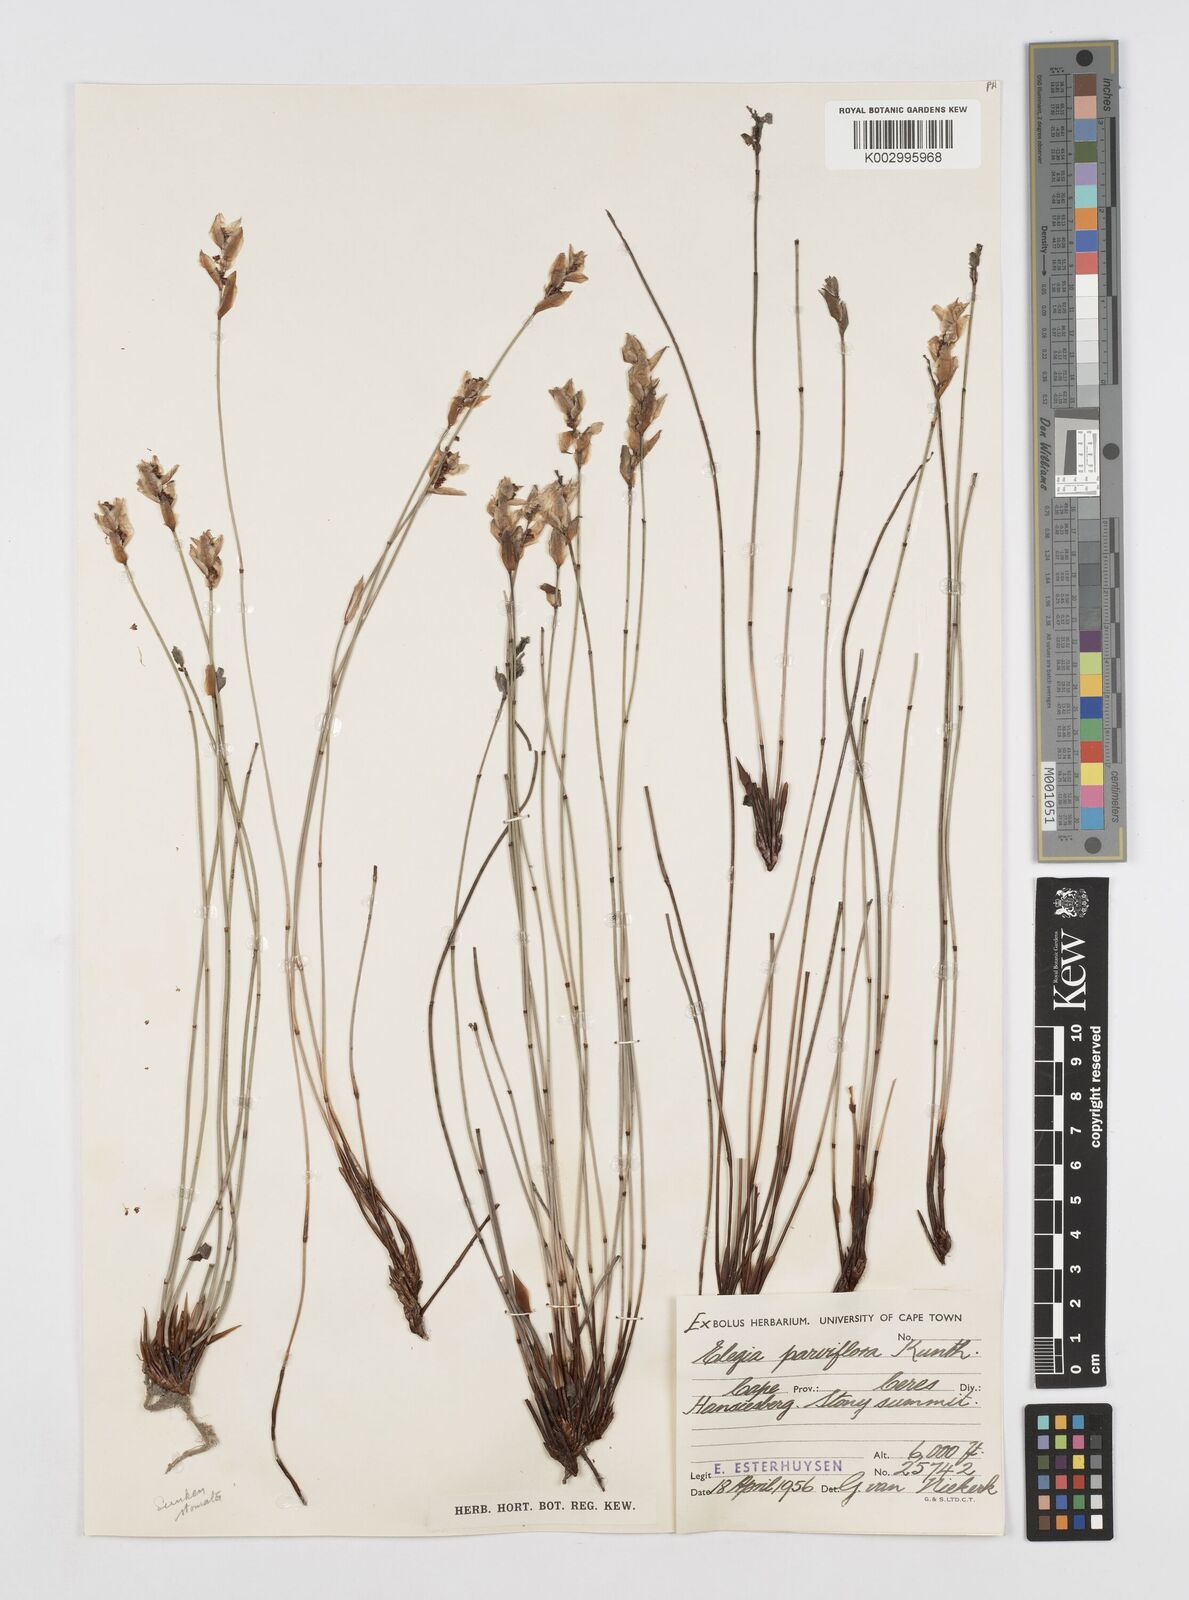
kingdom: Plantae
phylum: Tracheophyta
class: Liliopsida
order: Poales
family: Restionaceae
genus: Cannomois
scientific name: Cannomois
